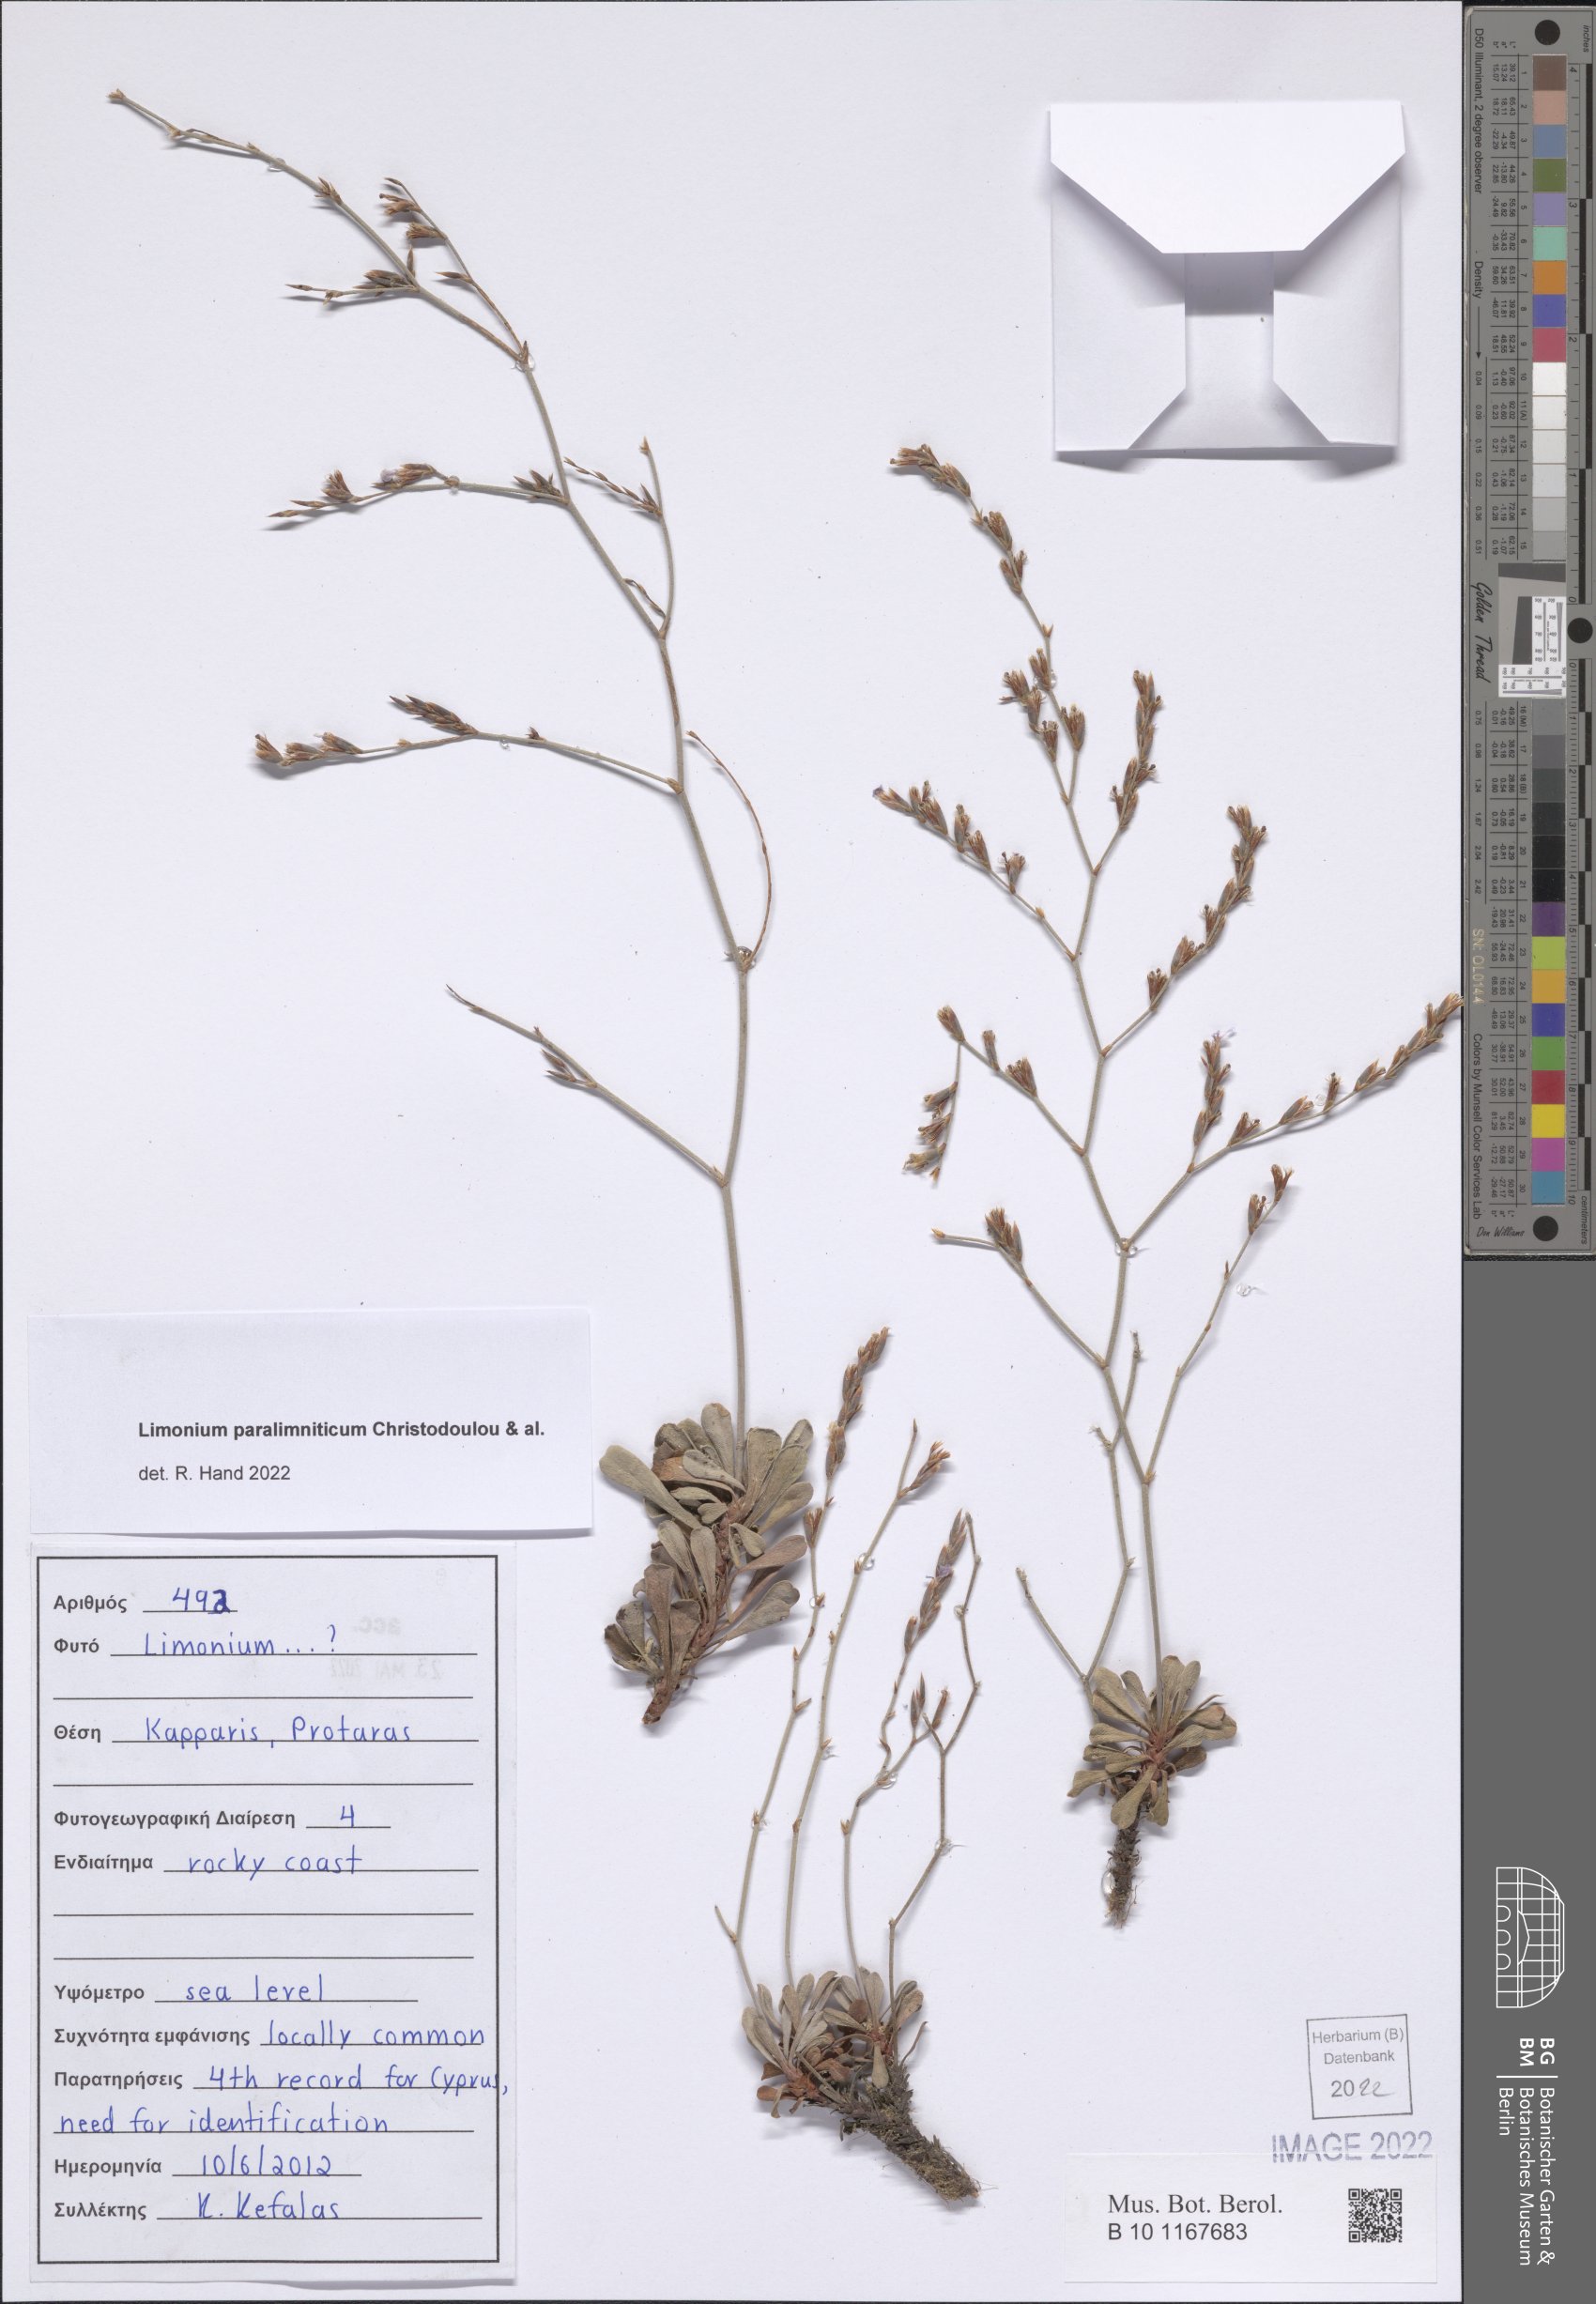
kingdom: Plantae
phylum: Tracheophyta
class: Magnoliopsida
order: Caryophyllales
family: Plumbaginaceae
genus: Limonium
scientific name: Limonium paralimniticum
